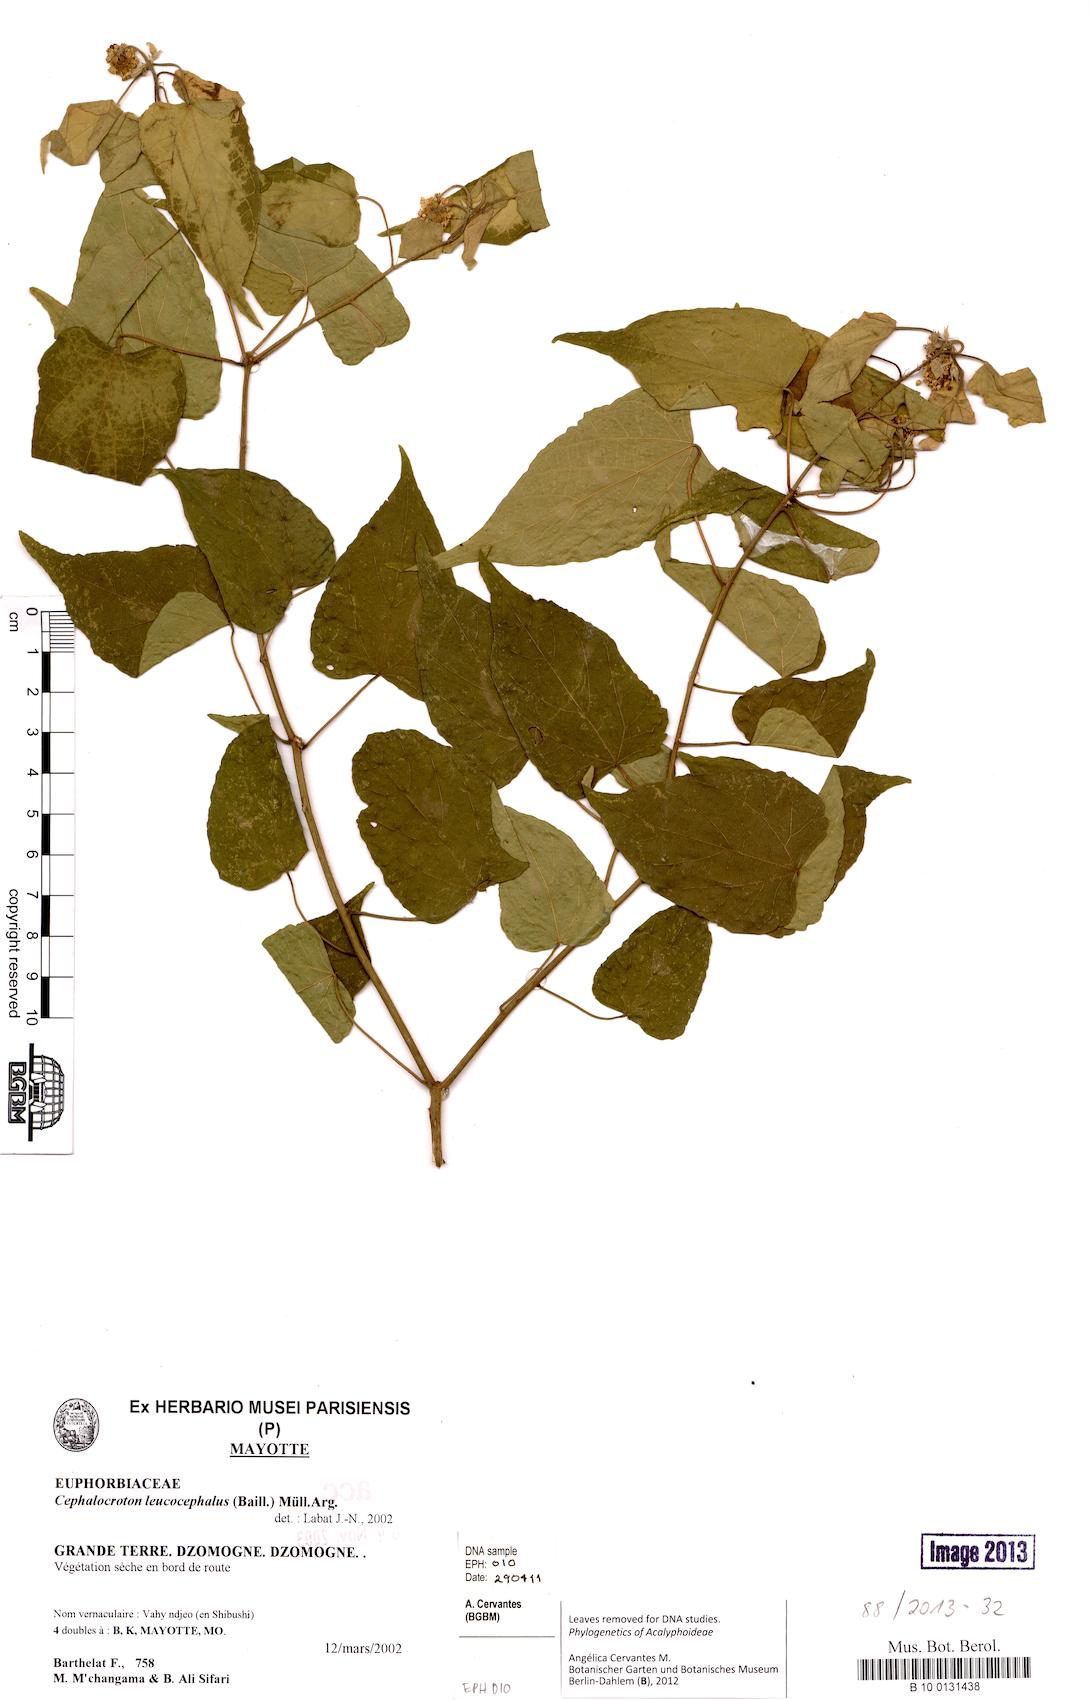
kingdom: Plantae
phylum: Tracheophyta
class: Magnoliopsida
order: Malpighiales
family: Euphorbiaceae
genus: Adenochlaena
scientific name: Adenochlaena leucocephala
